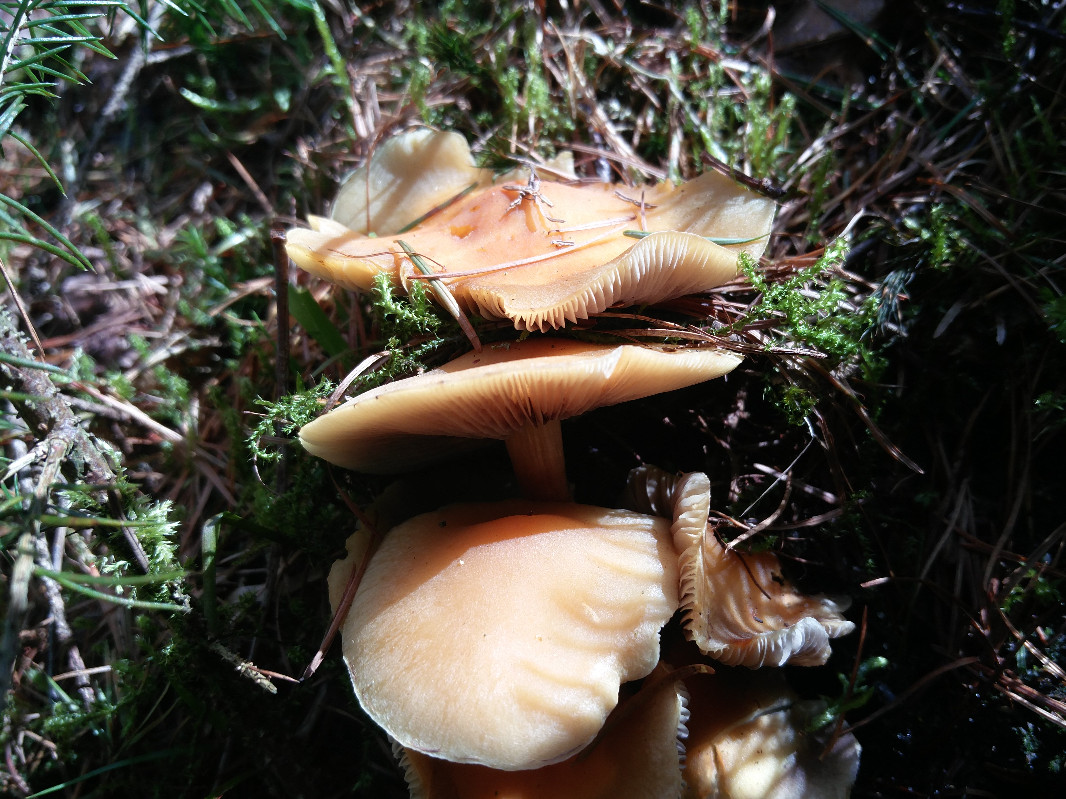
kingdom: Fungi
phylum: Basidiomycota
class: Agaricomycetes
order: Agaricales
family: Strophariaceae
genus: Hypholoma
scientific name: Hypholoma capnoides
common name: gran-svovlhat
